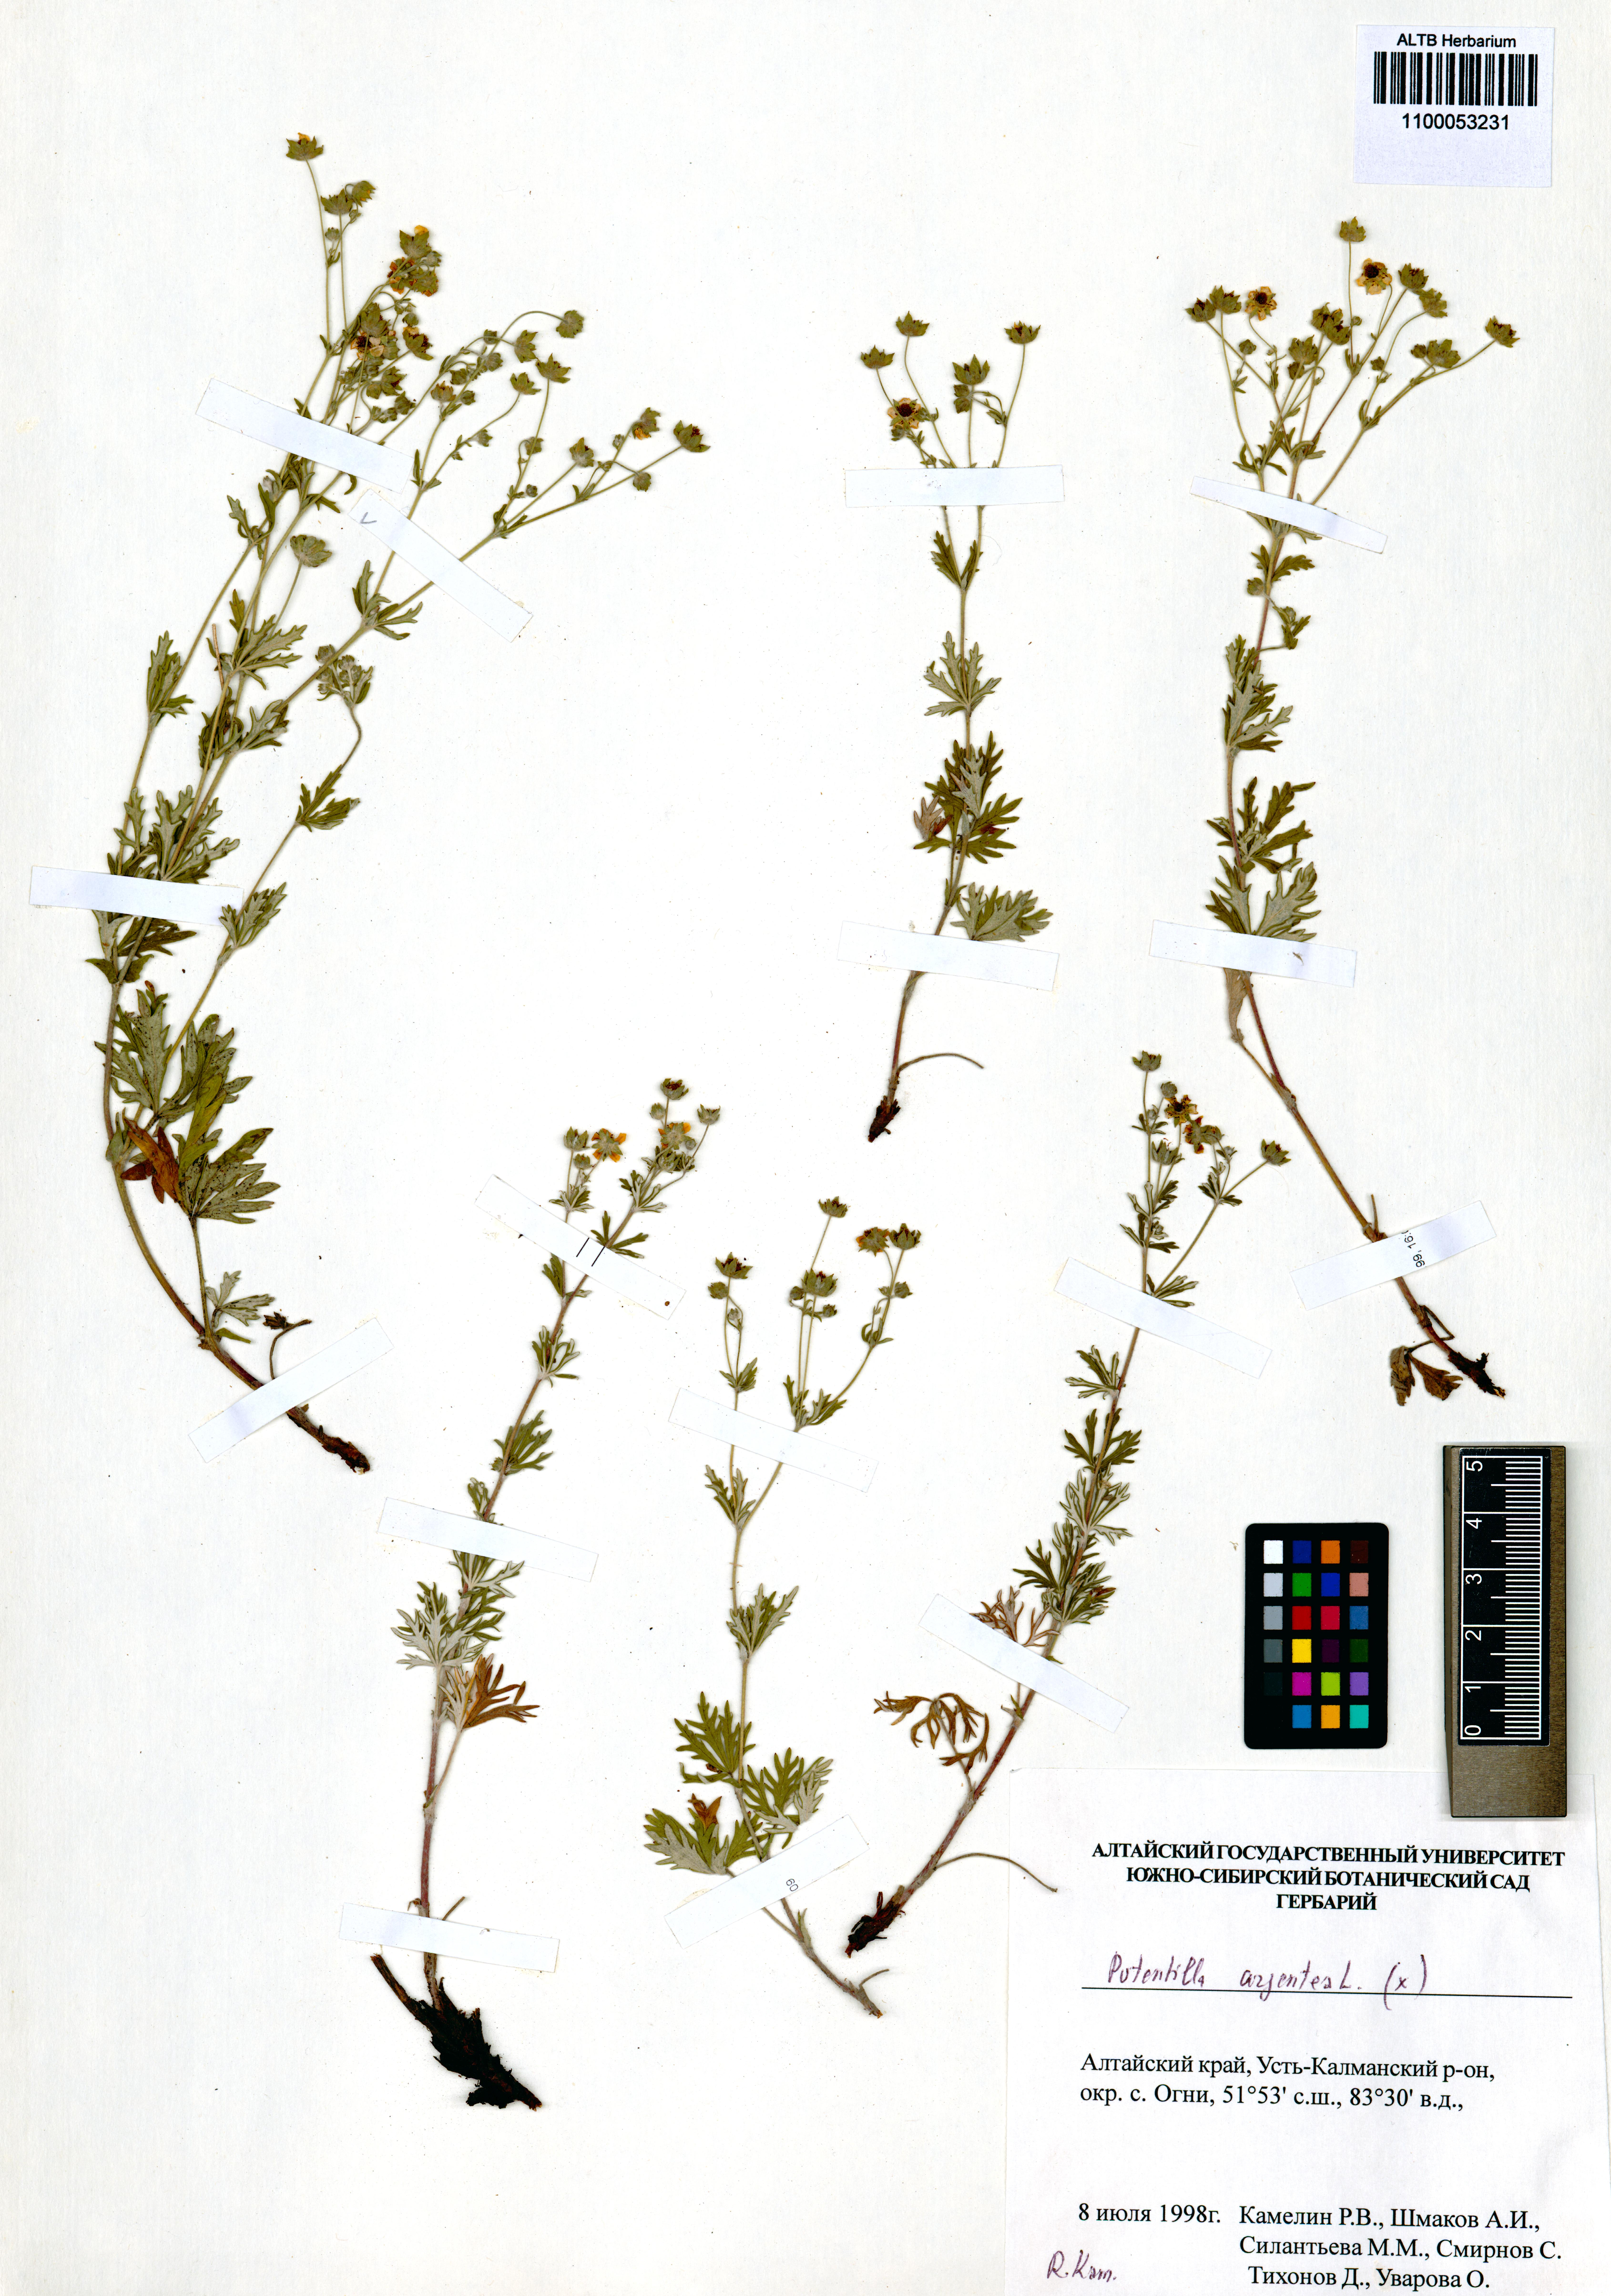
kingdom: Plantae
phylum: Tracheophyta
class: Magnoliopsida
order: Rosales
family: Rosaceae
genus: Potentilla
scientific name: Potentilla argentea
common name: Hoary cinquefoil
